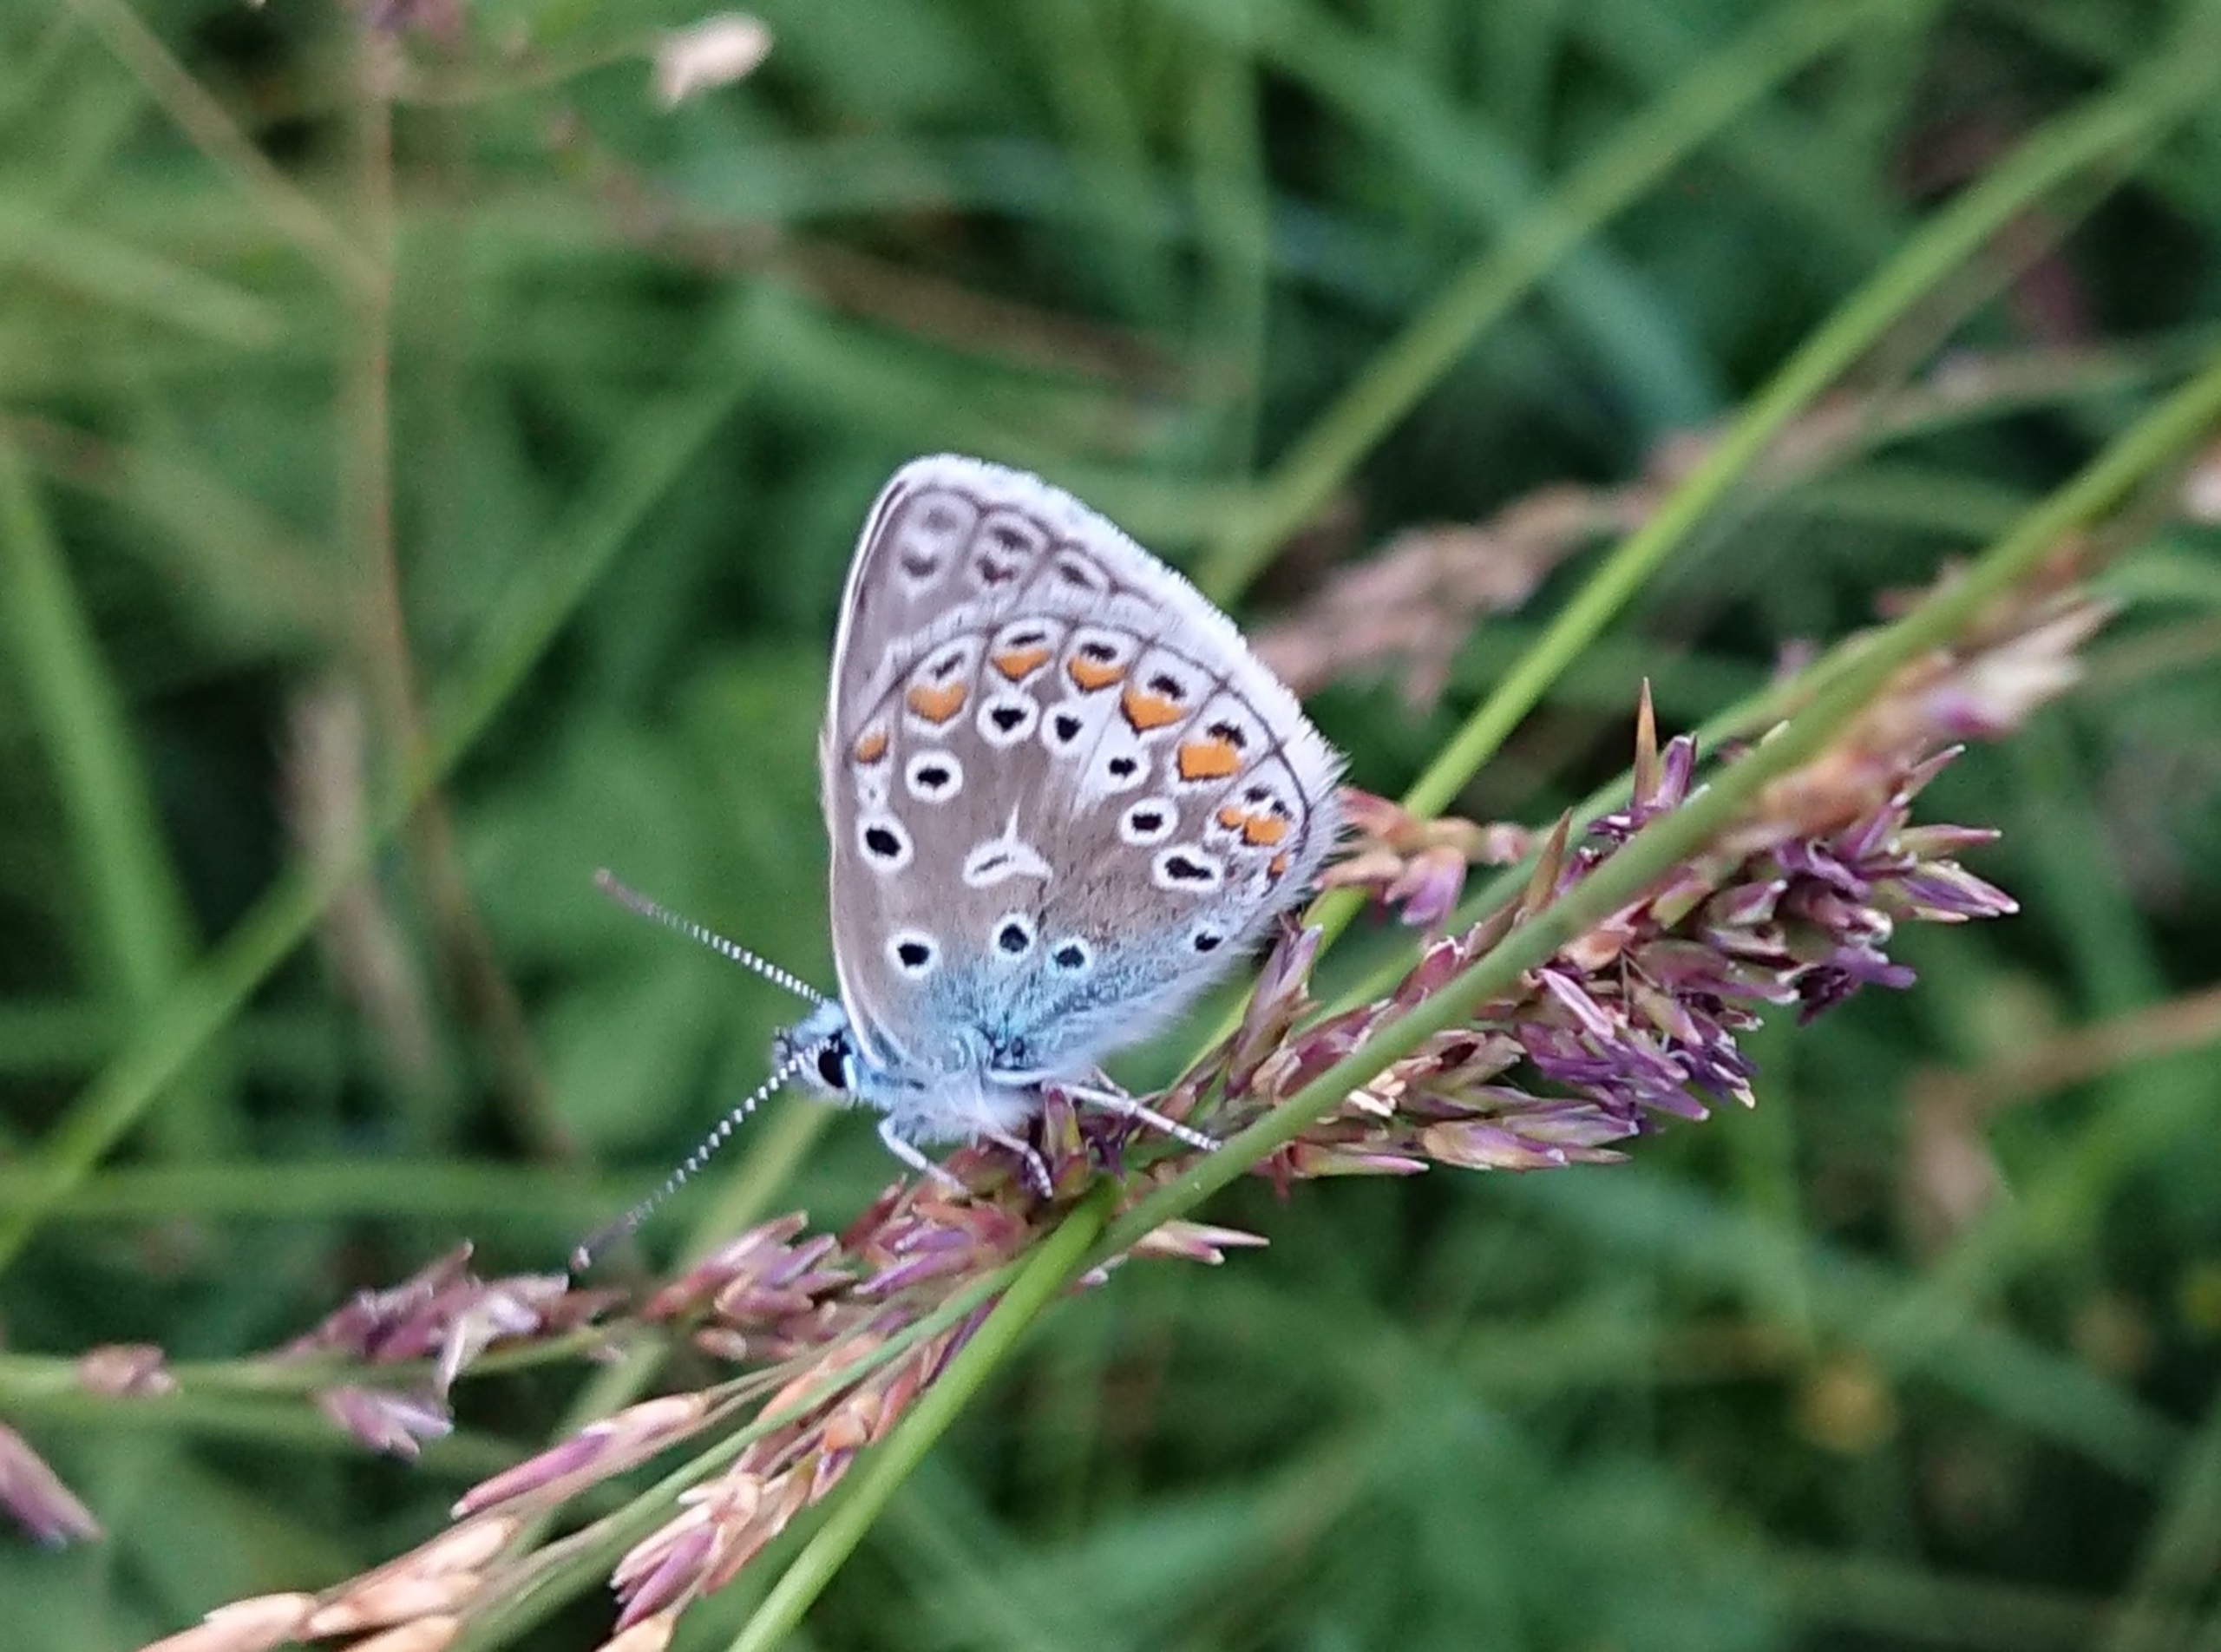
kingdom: Animalia
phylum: Arthropoda
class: Insecta
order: Lepidoptera
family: Lycaenidae
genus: Polyommatus
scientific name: Polyommatus icarus
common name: Almindelig blåfugl
